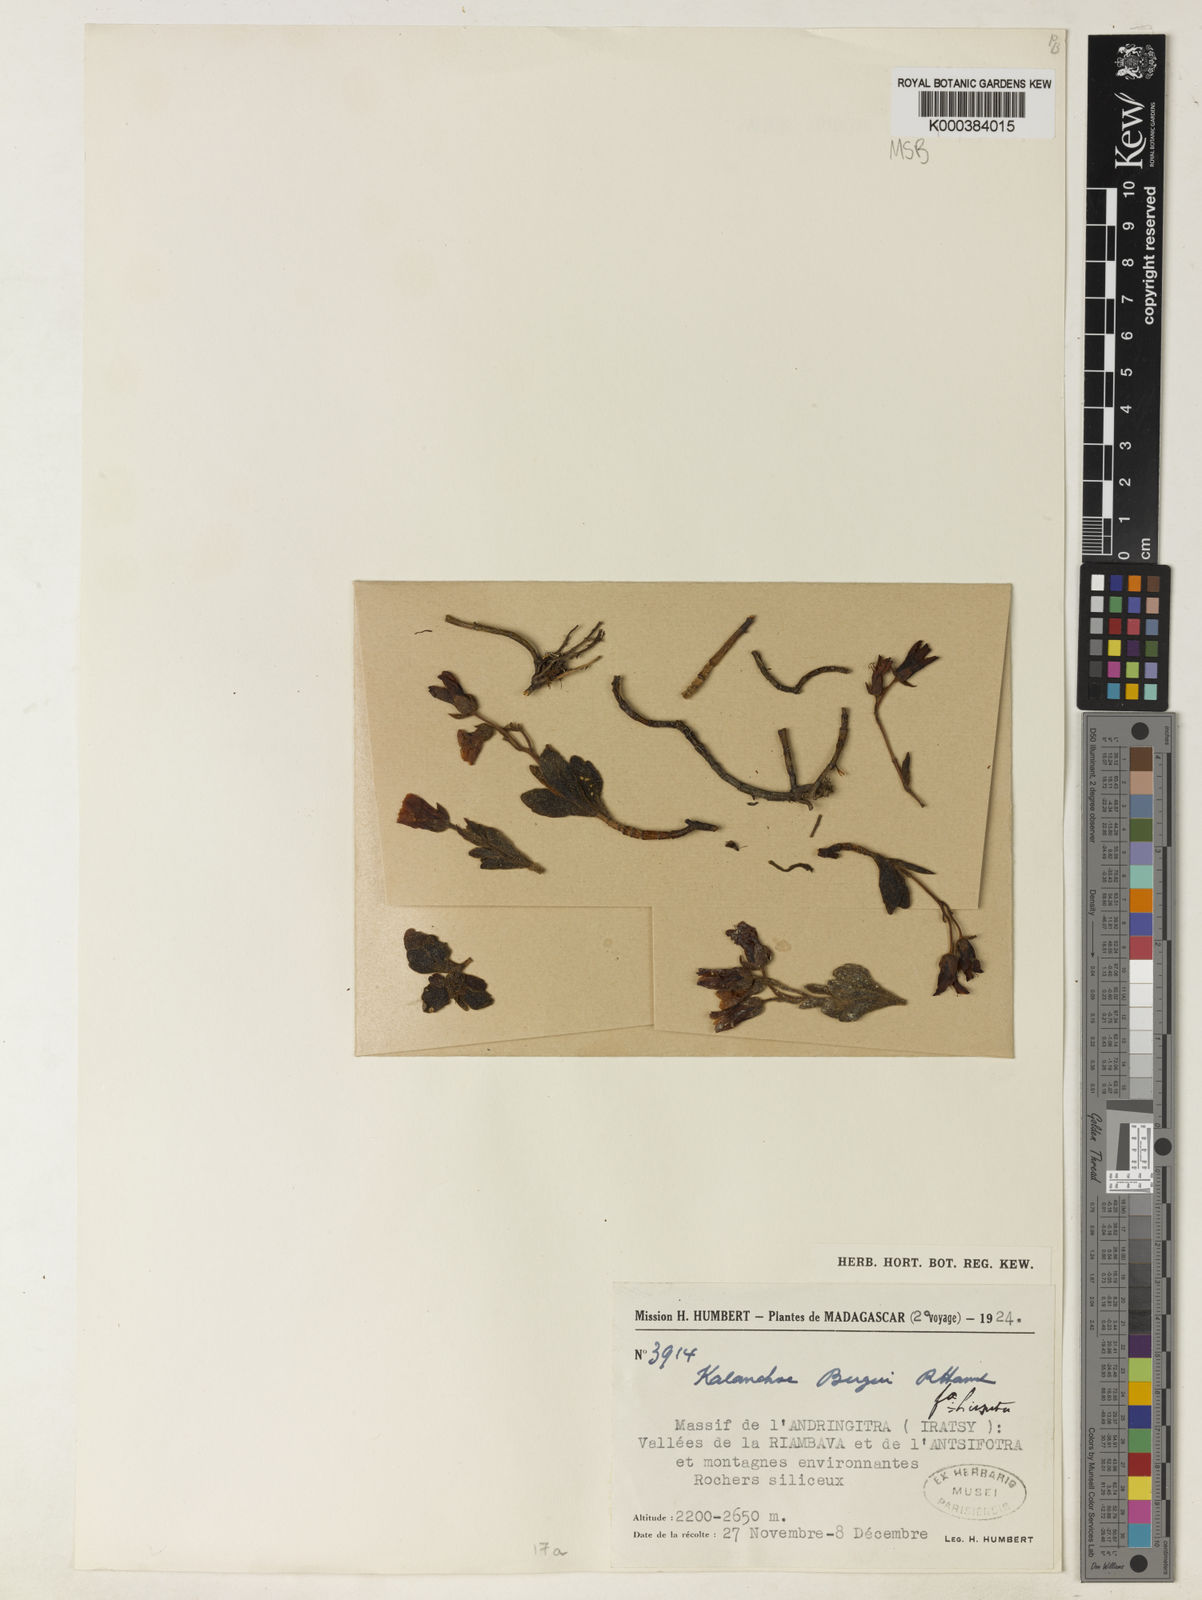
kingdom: Plantae
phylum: Tracheophyta
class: Magnoliopsida
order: Saxifragales
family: Crassulaceae
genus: Kalanchoe
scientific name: Kalanchoe bergeri
